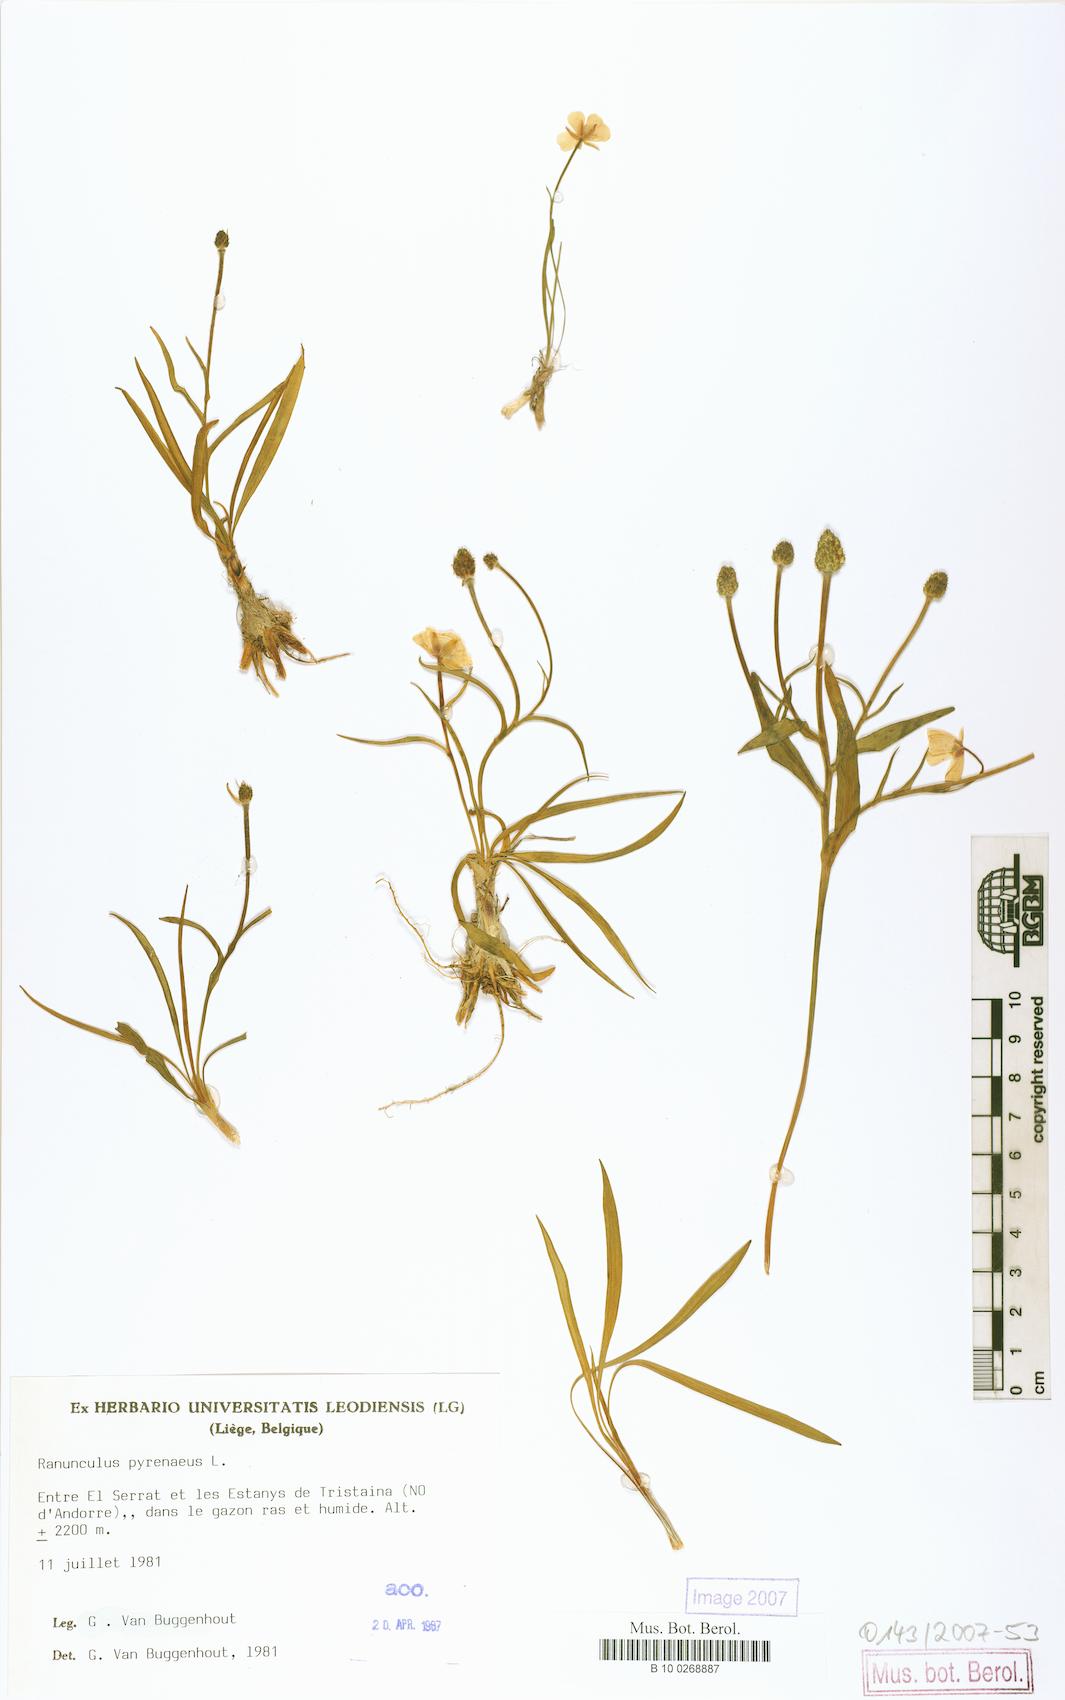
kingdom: Plantae
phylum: Tracheophyta
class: Magnoliopsida
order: Ranunculales
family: Ranunculaceae
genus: Ranunculus
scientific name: Ranunculus pyrenaeus
